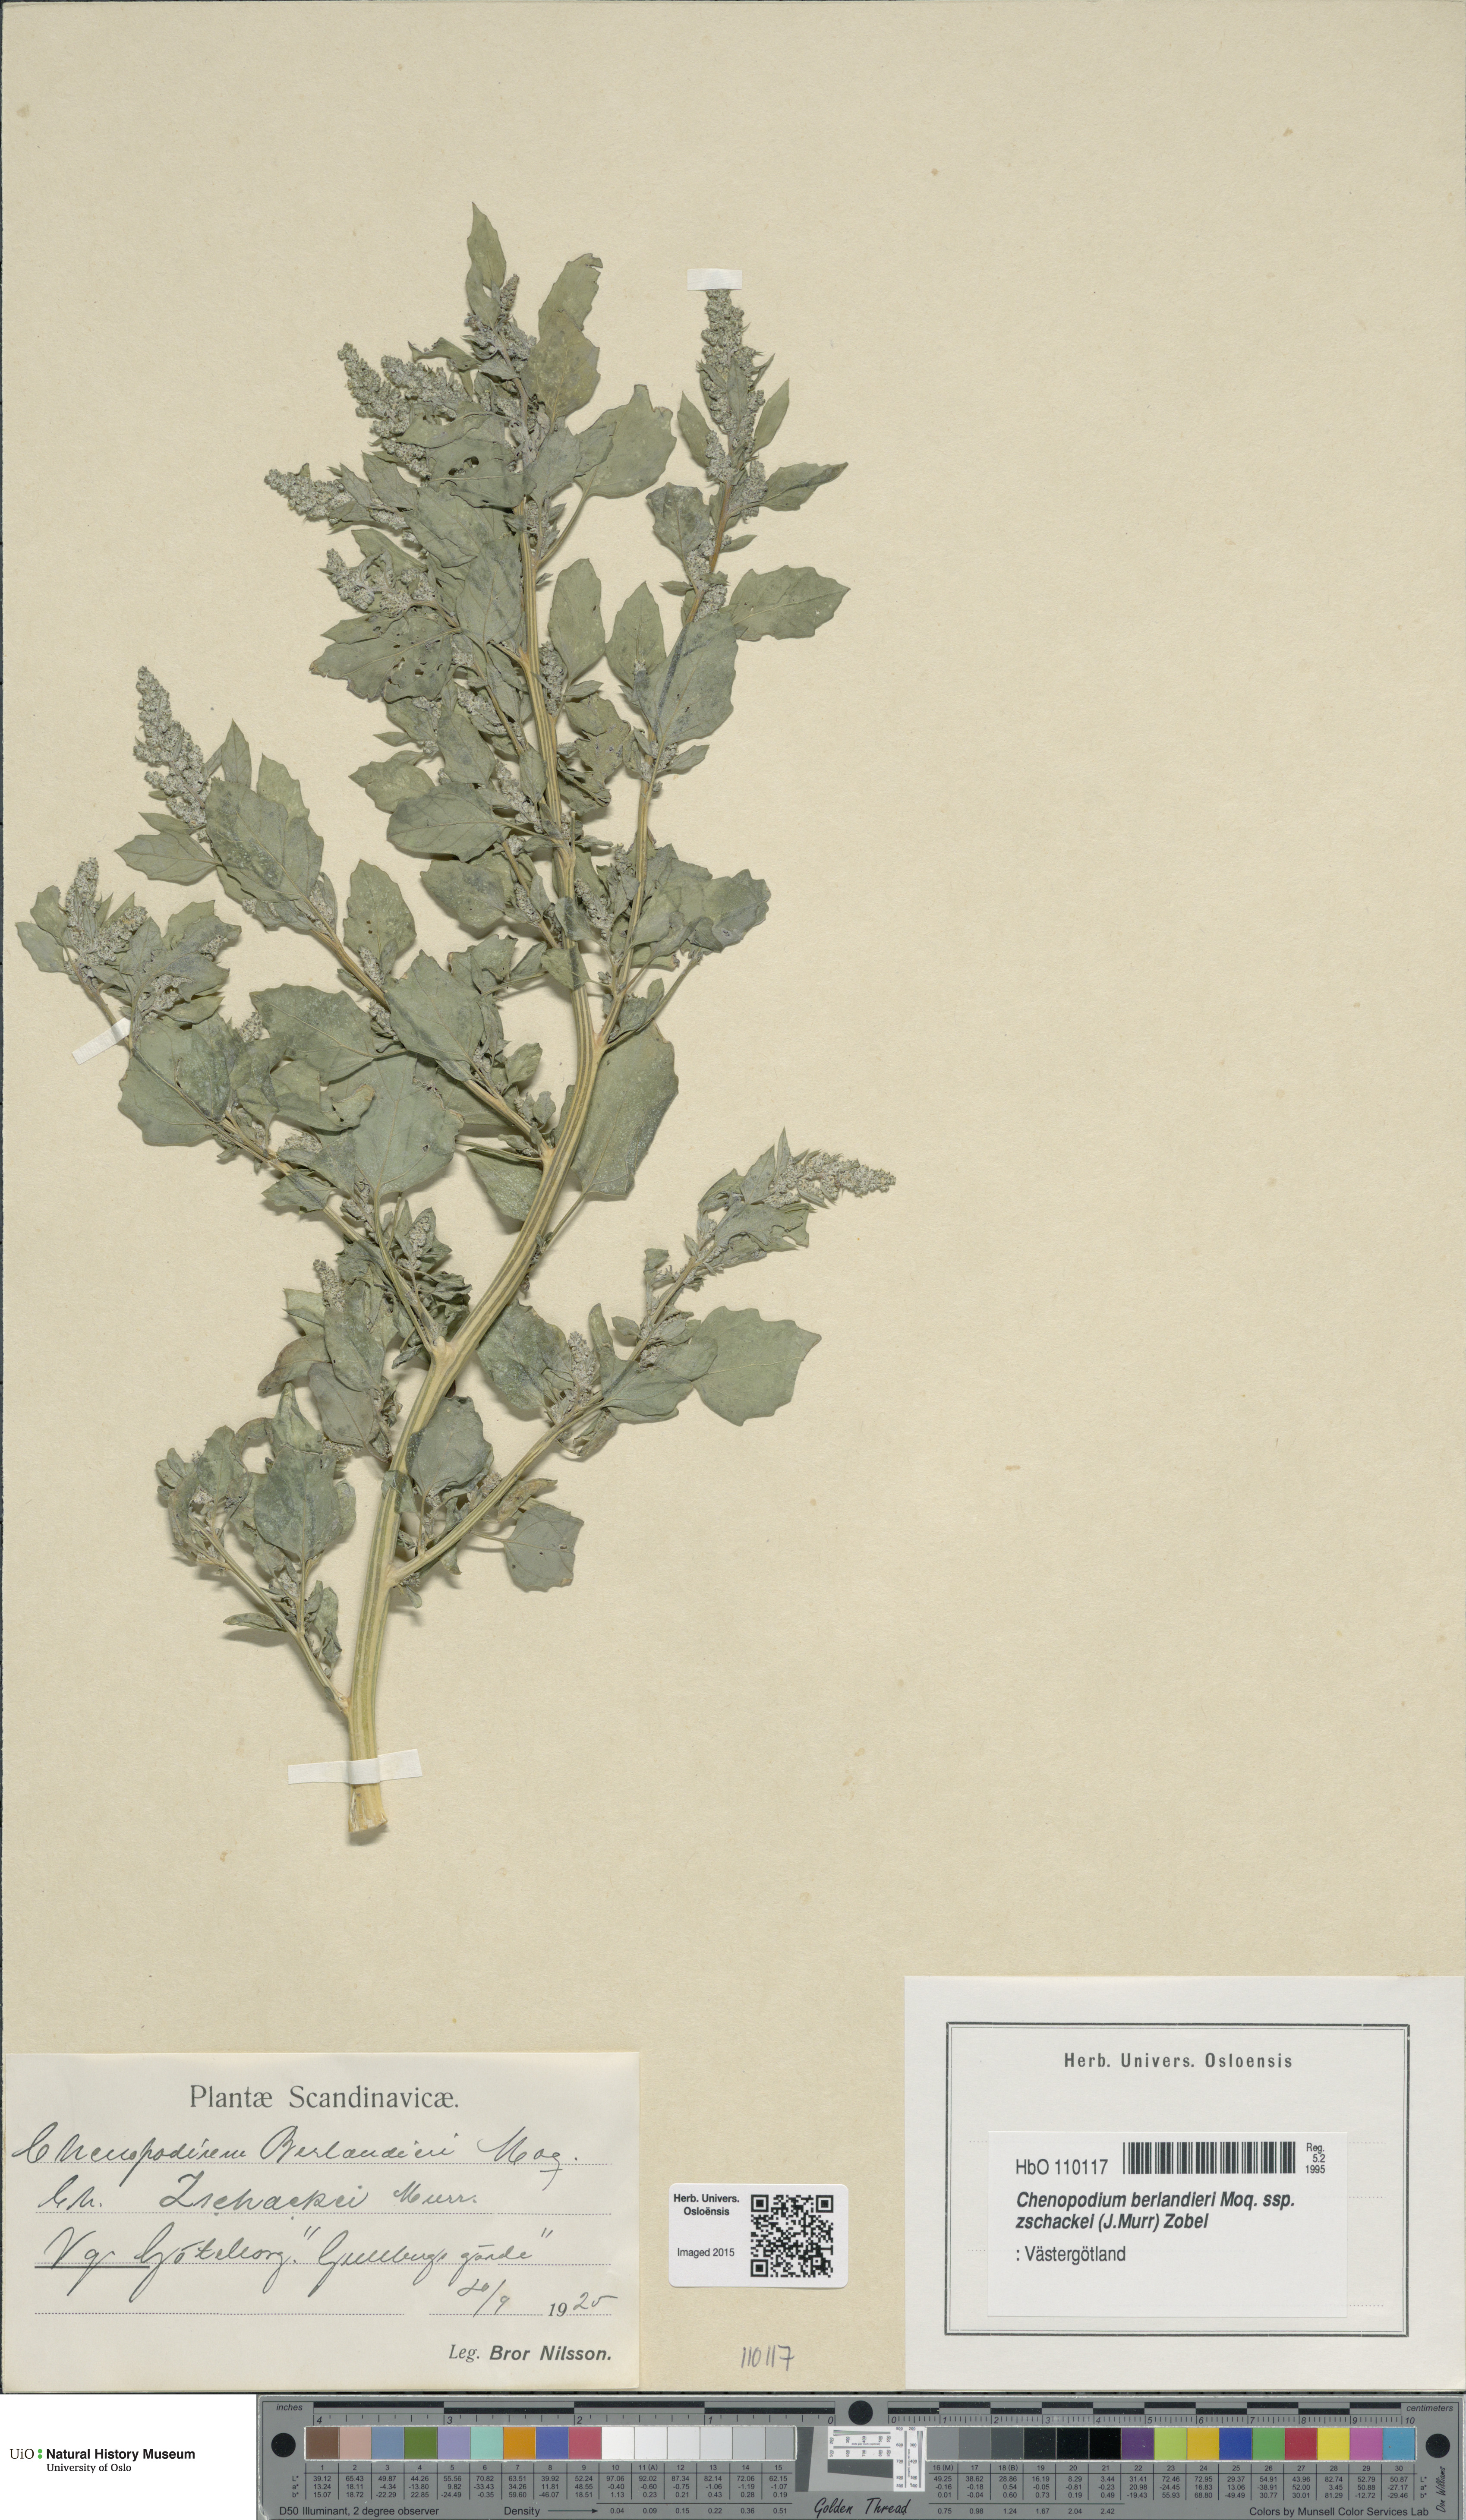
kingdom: Plantae
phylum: Tracheophyta
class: Magnoliopsida
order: Caryophyllales
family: Amaranthaceae
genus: Chenopodium
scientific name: Chenopodium berlandieri
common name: Pit-seed goosefoot
